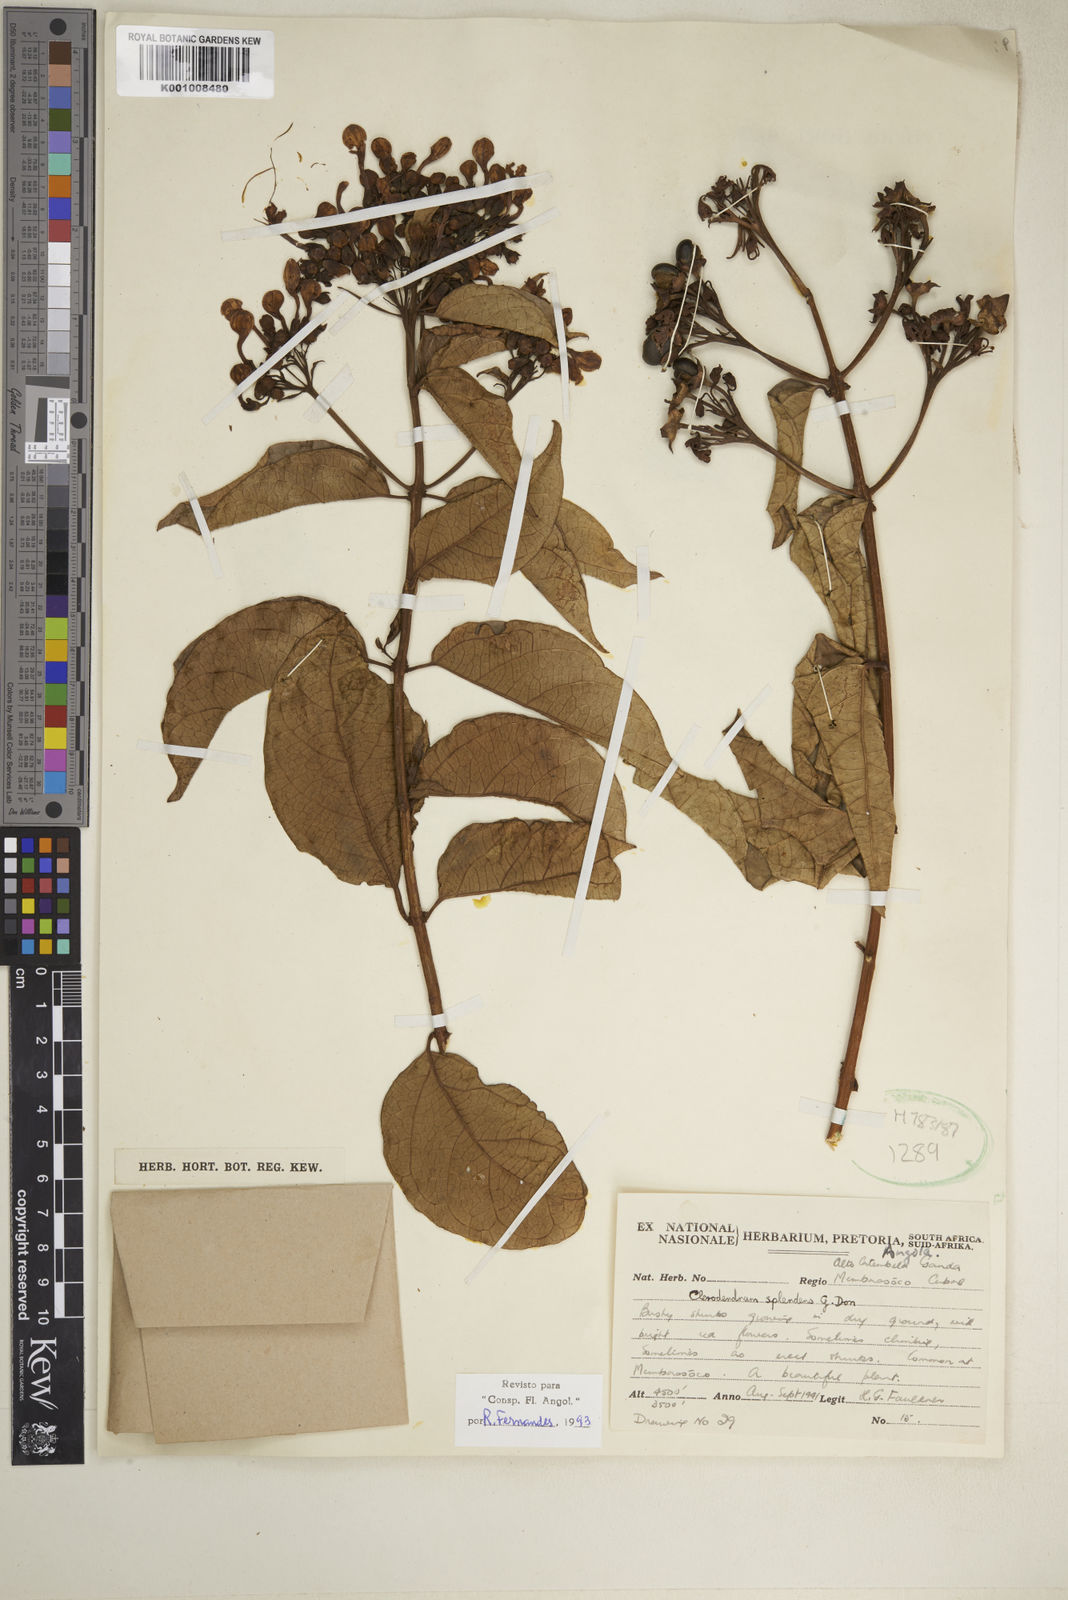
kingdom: Plantae
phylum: Tracheophyta
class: Magnoliopsida
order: Lamiales
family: Lamiaceae
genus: Clerodendrum
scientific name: Clerodendrum splendens
